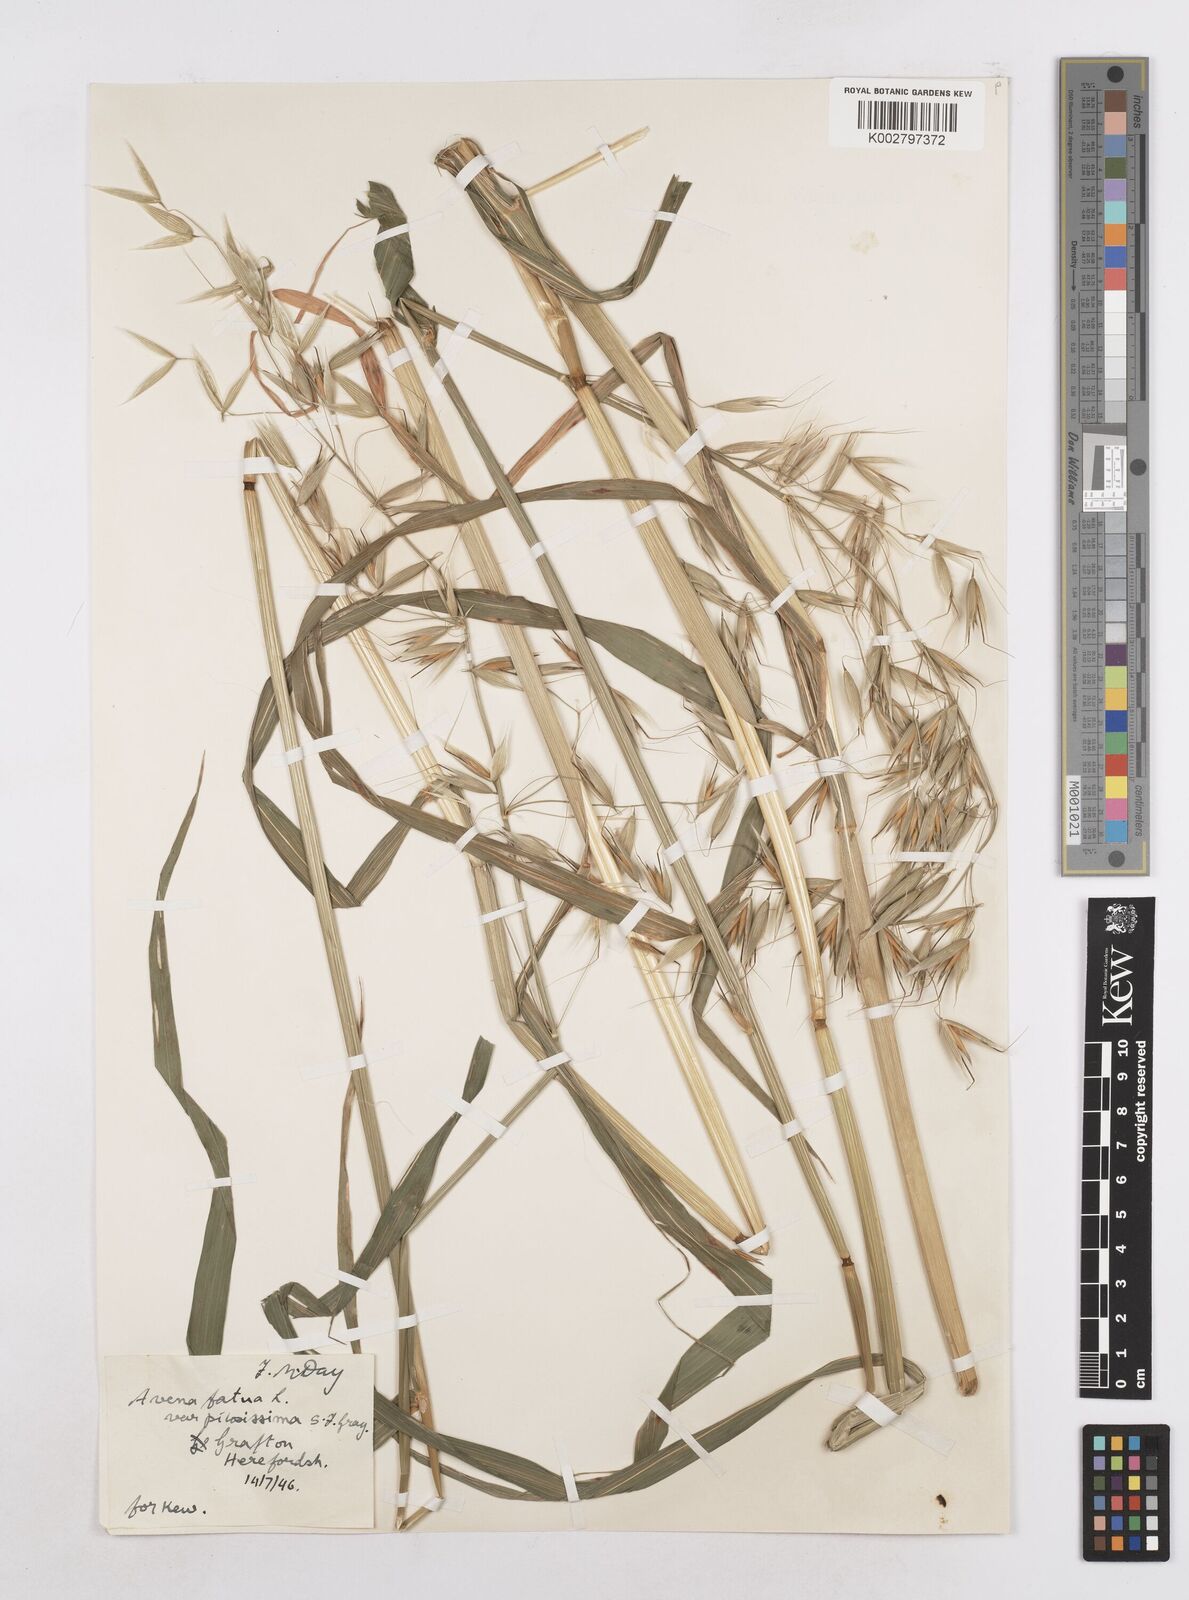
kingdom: Plantae
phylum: Tracheophyta
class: Liliopsida
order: Poales
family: Poaceae
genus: Avena
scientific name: Avena fatua
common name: Wild oat
